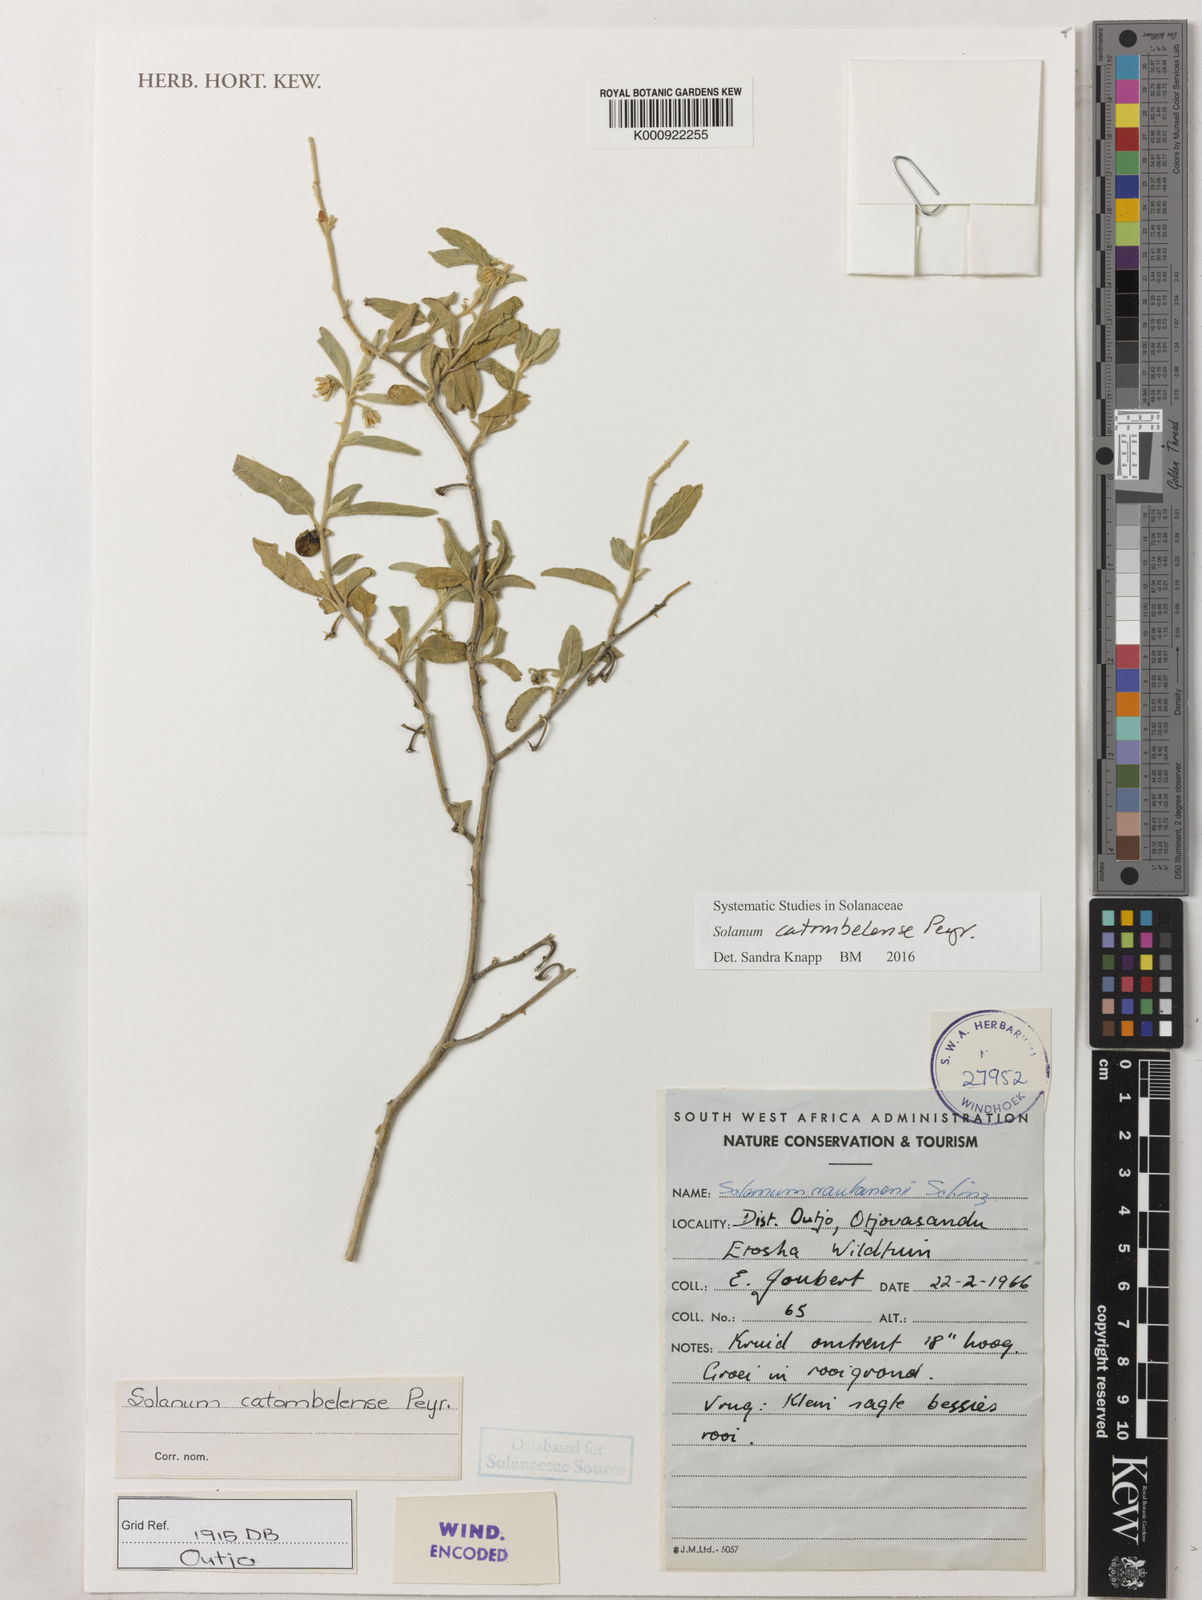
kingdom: Plantae
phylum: Tracheophyta
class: Magnoliopsida
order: Solanales
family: Solanaceae
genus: Solanum
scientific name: Solanum catombelense
